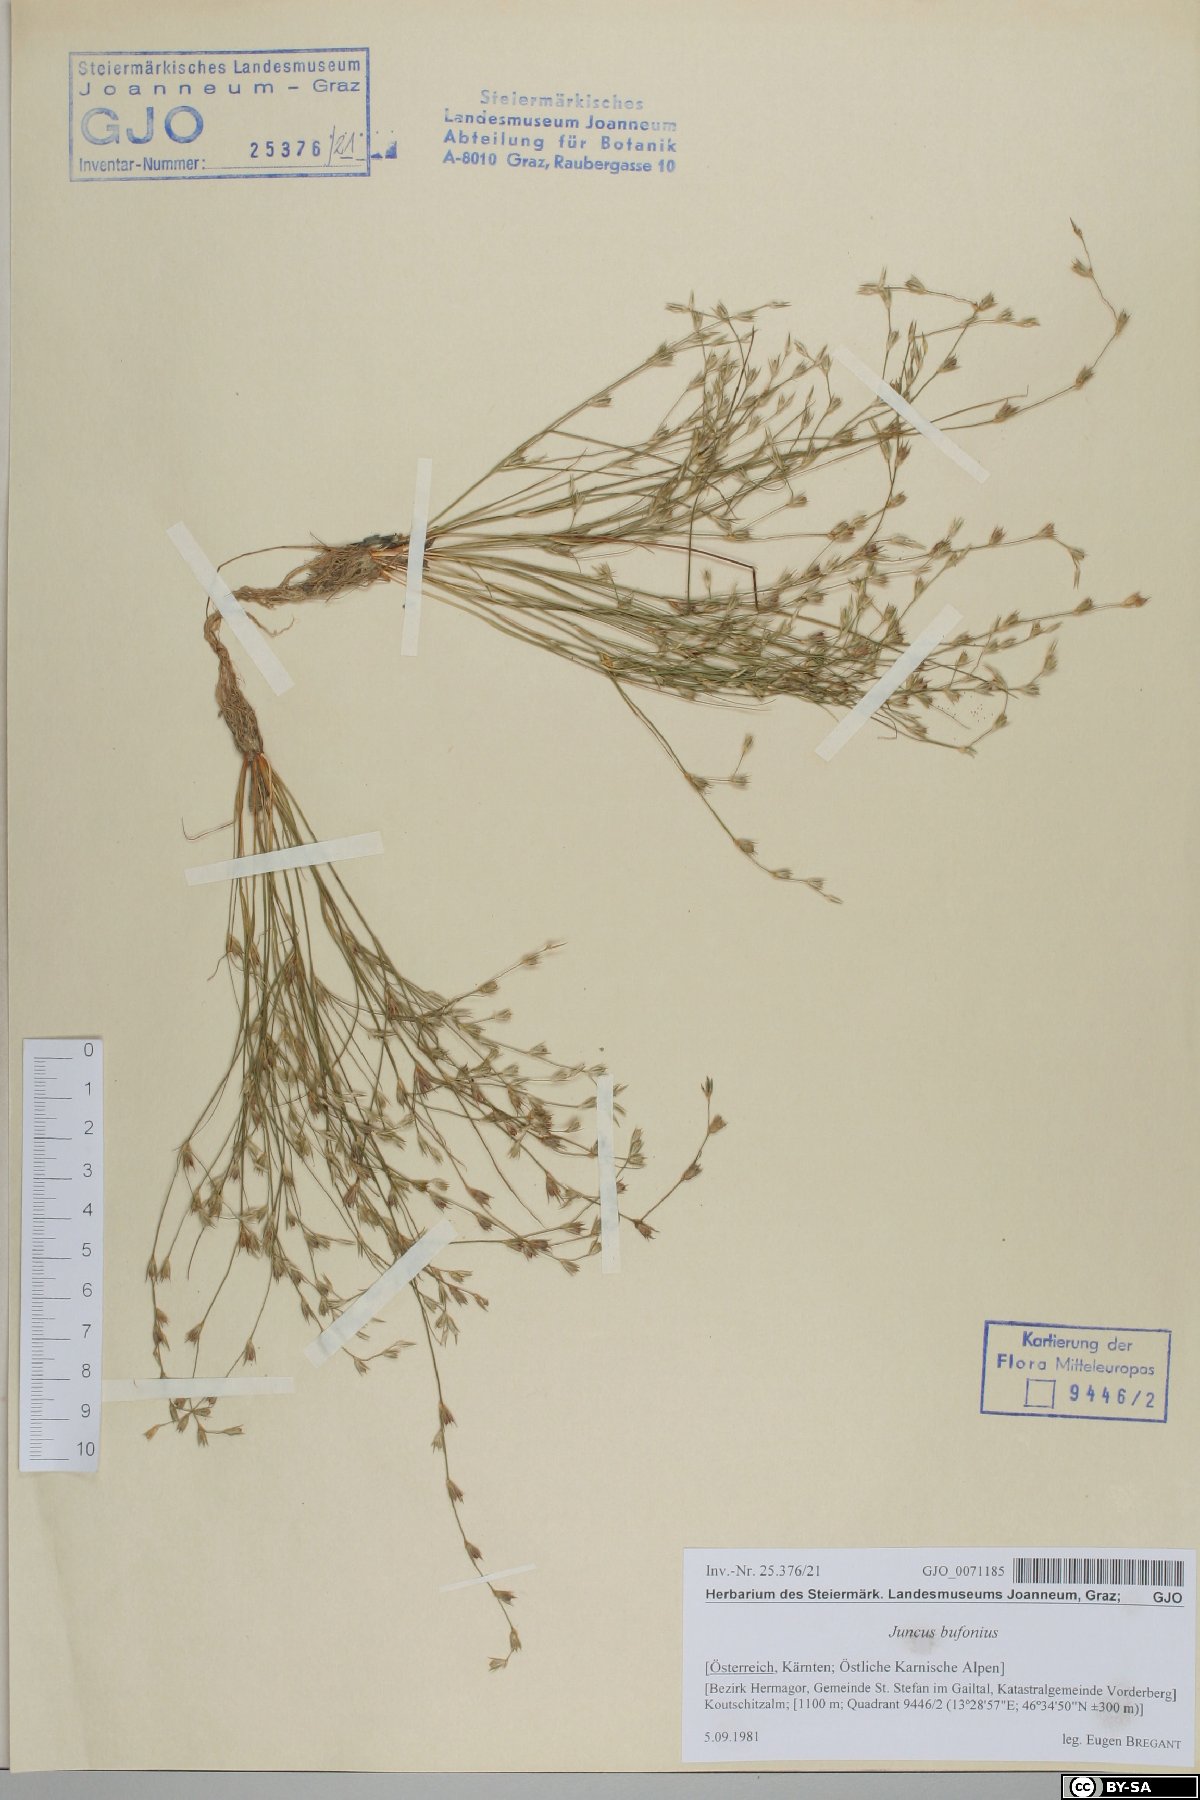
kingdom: Plantae
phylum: Tracheophyta
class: Liliopsida
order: Poales
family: Juncaceae
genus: Juncus
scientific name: Juncus bufonius
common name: Toad rush
